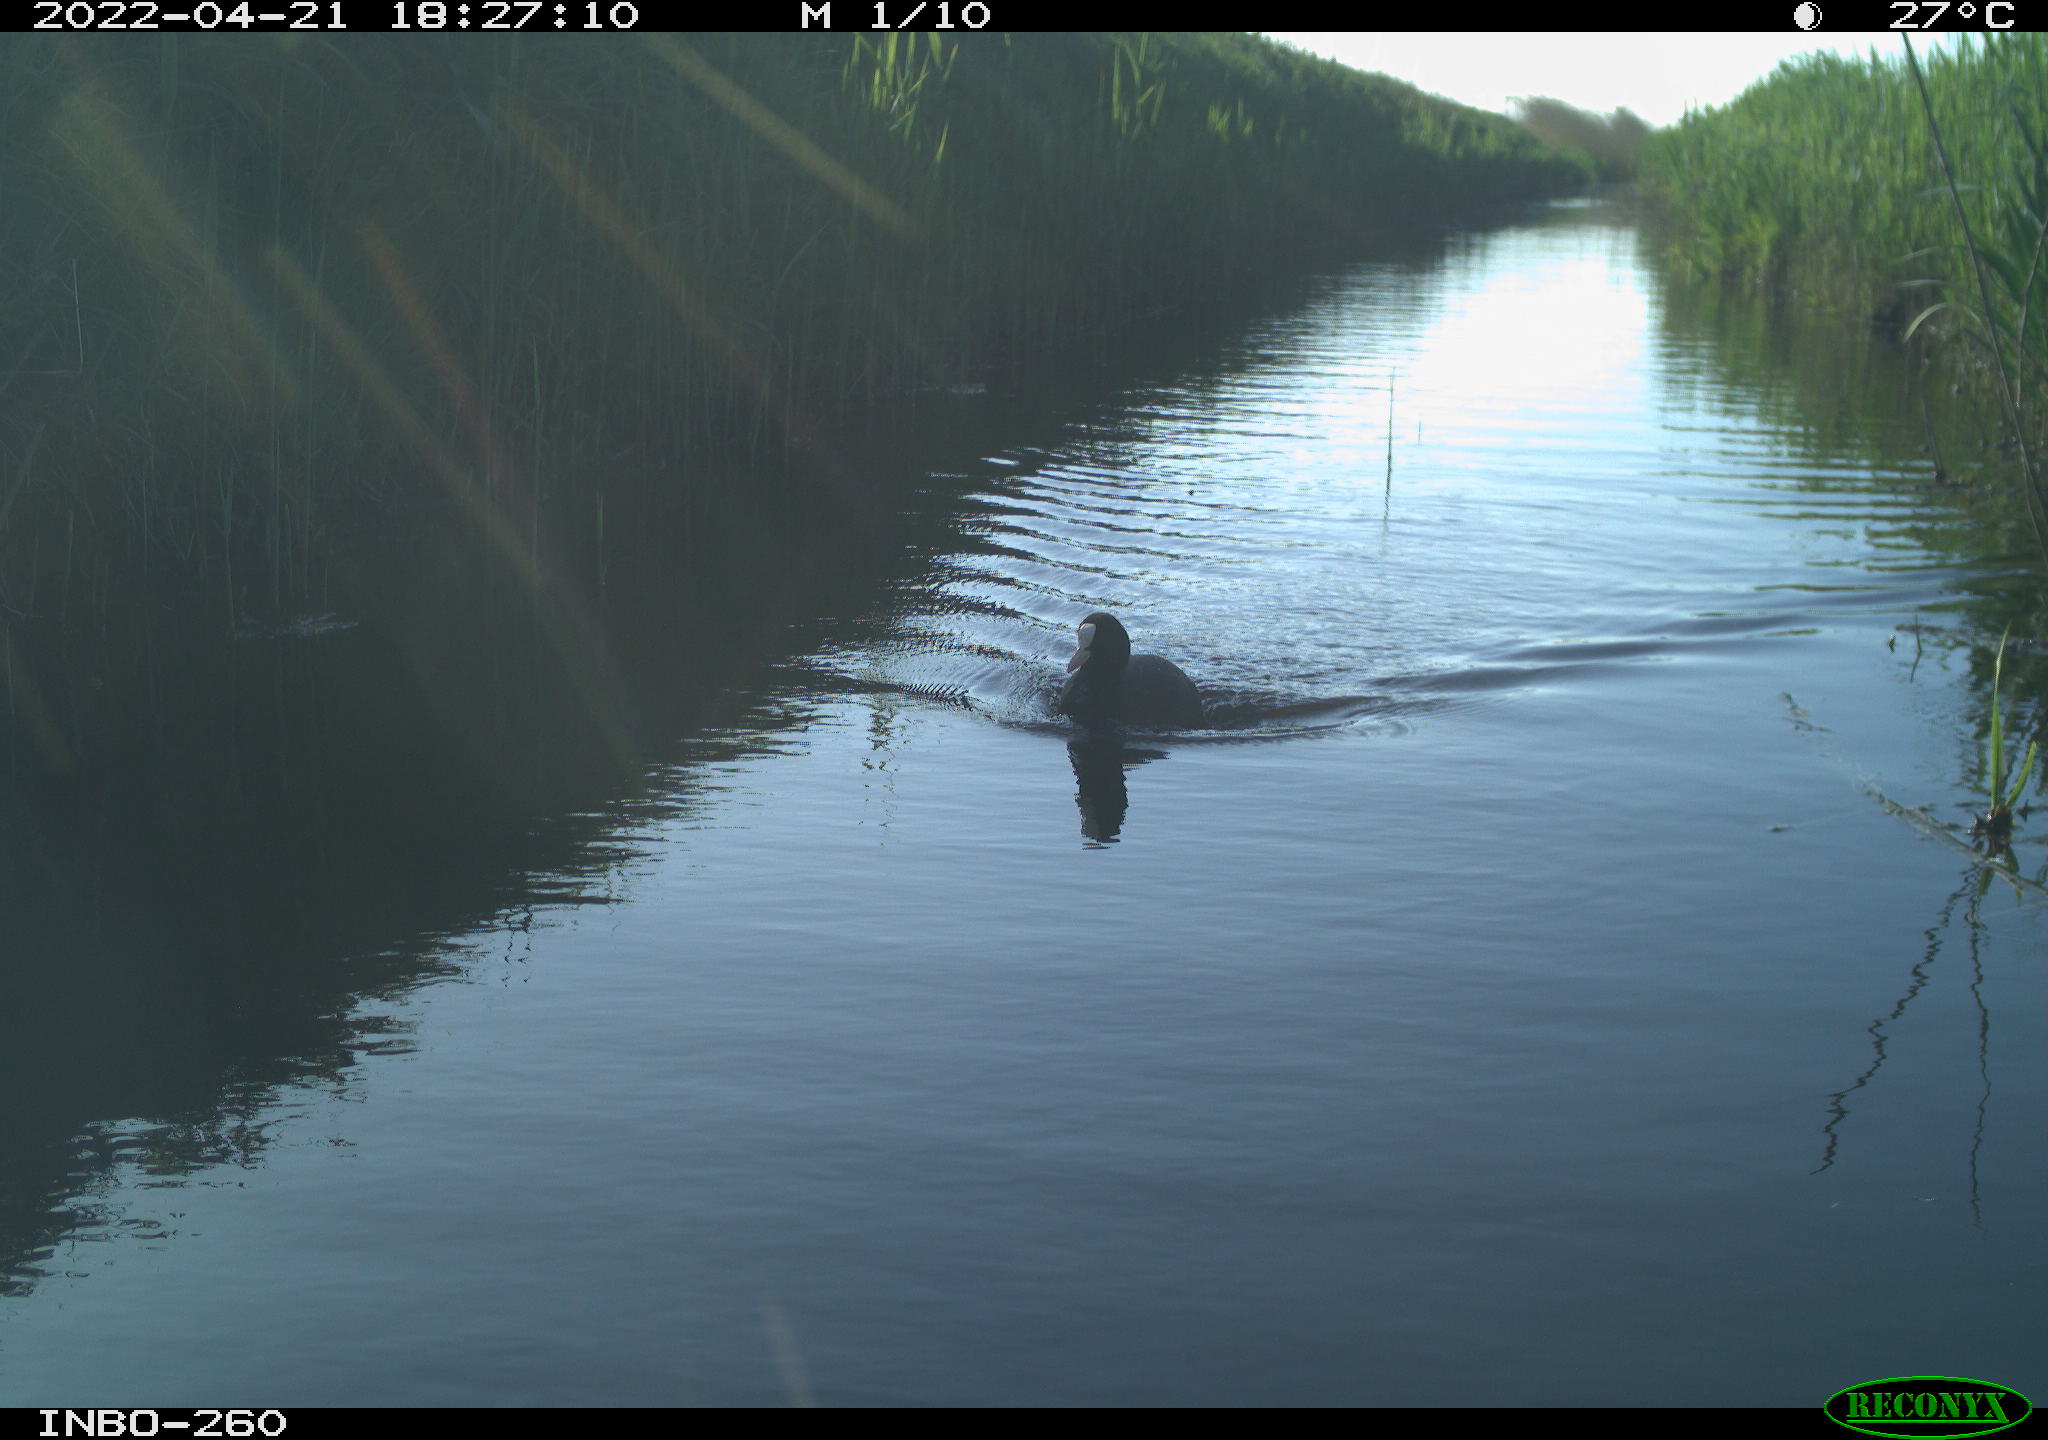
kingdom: Animalia
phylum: Chordata
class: Aves
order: Gruiformes
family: Rallidae
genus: Fulica
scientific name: Fulica atra
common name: Eurasian coot
